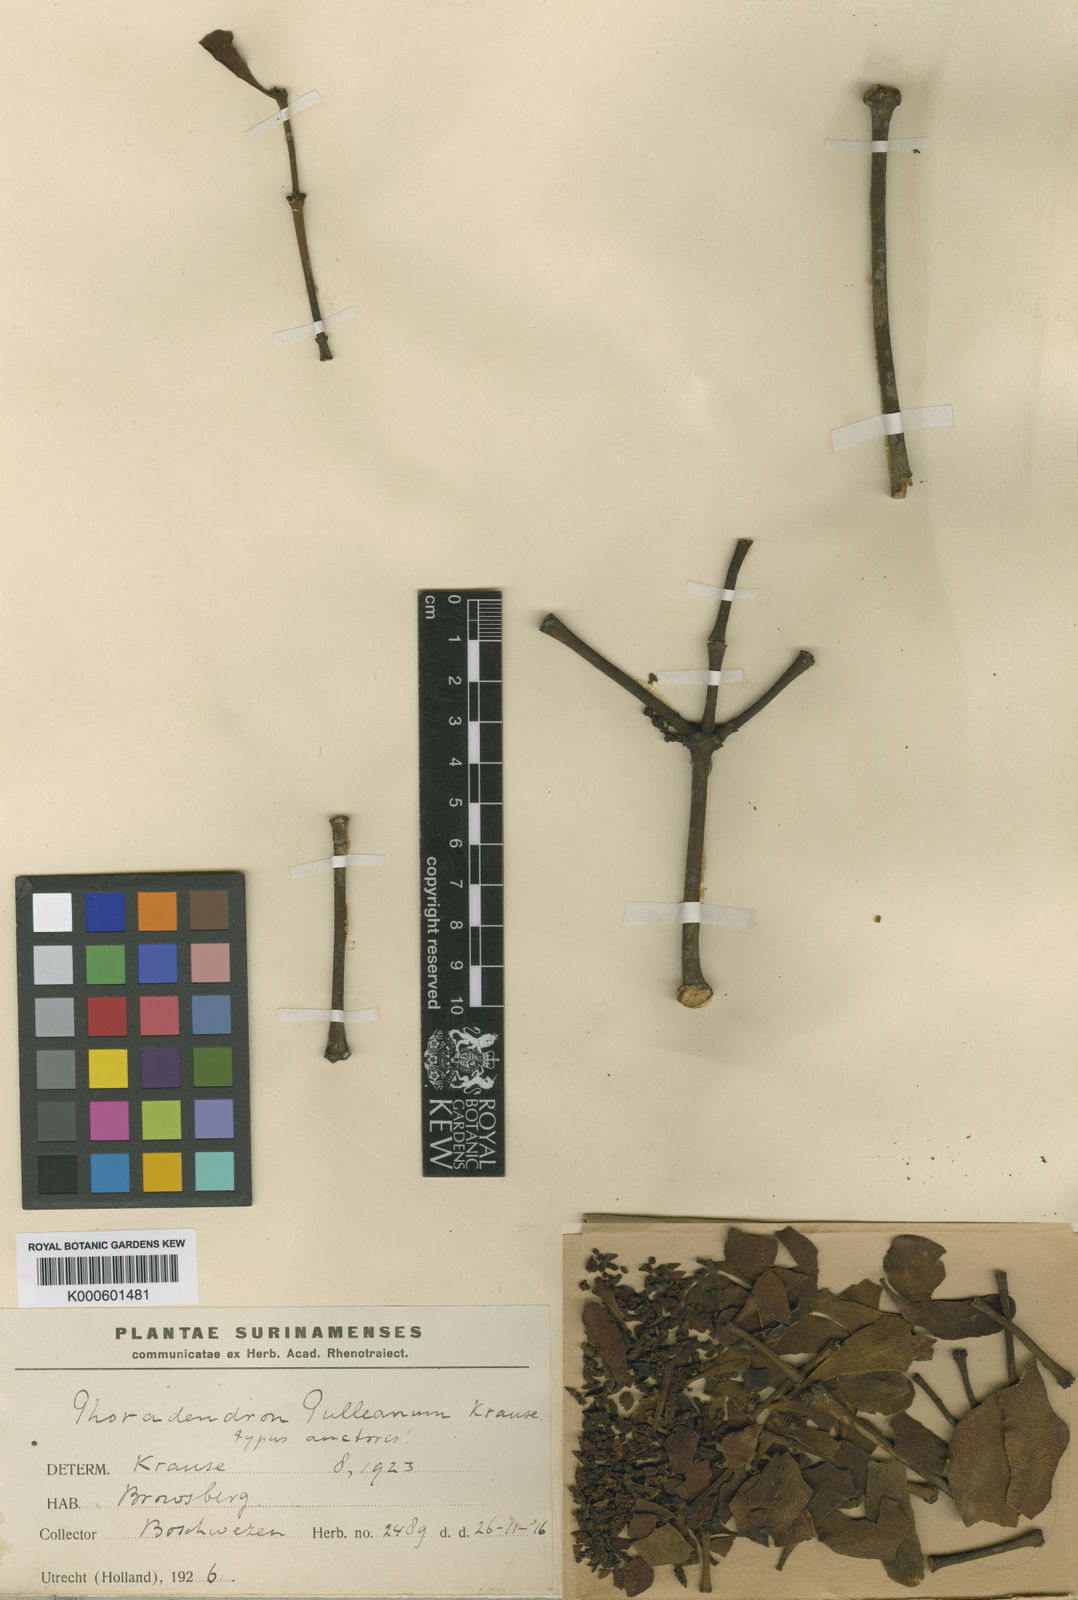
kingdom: Plantae
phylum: Tracheophyta
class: Magnoliopsida
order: Santalales
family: Viscaceae
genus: Phoradendron
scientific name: Phoradendron pulleanum
